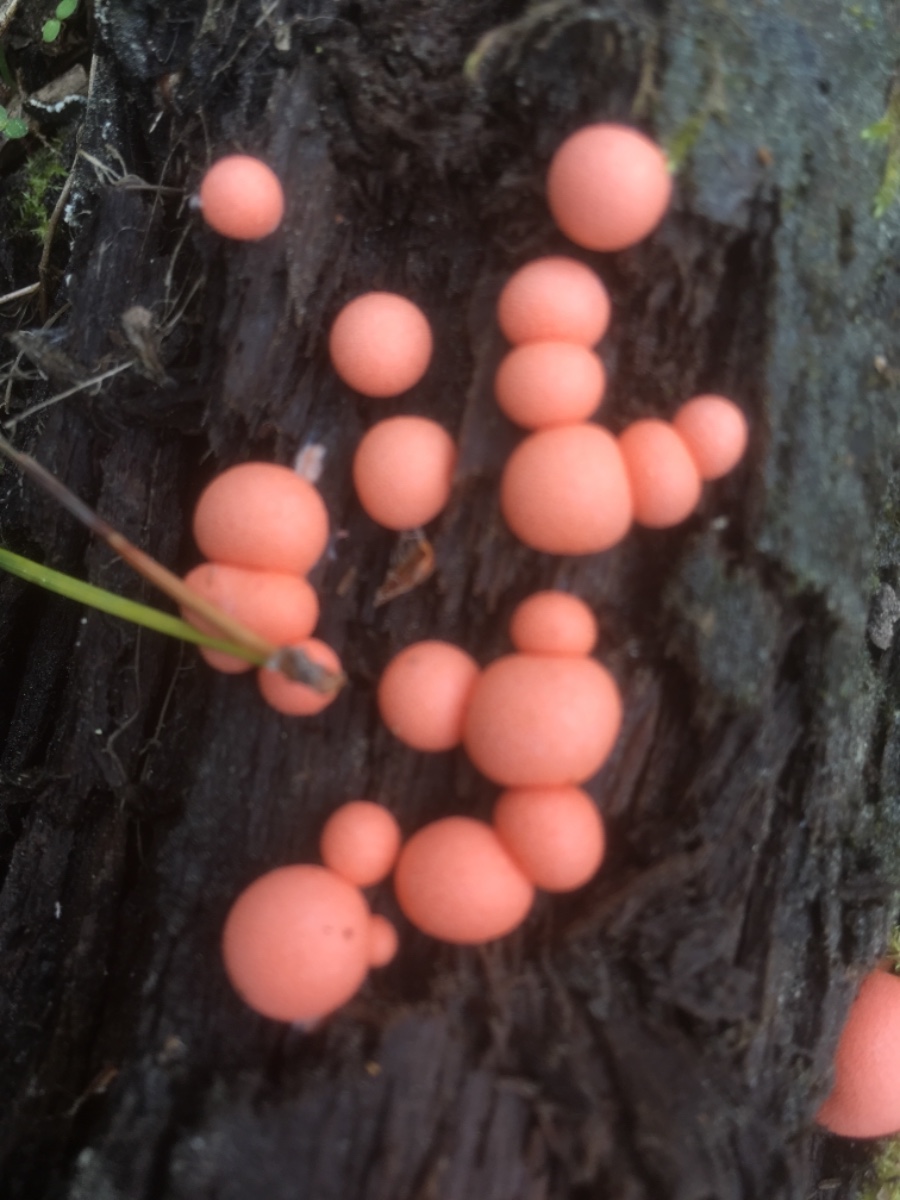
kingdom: Protozoa
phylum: Mycetozoa
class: Myxomycetes
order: Cribrariales
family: Tubiferaceae
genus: Lycogala
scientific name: Lycogala epidendrum
